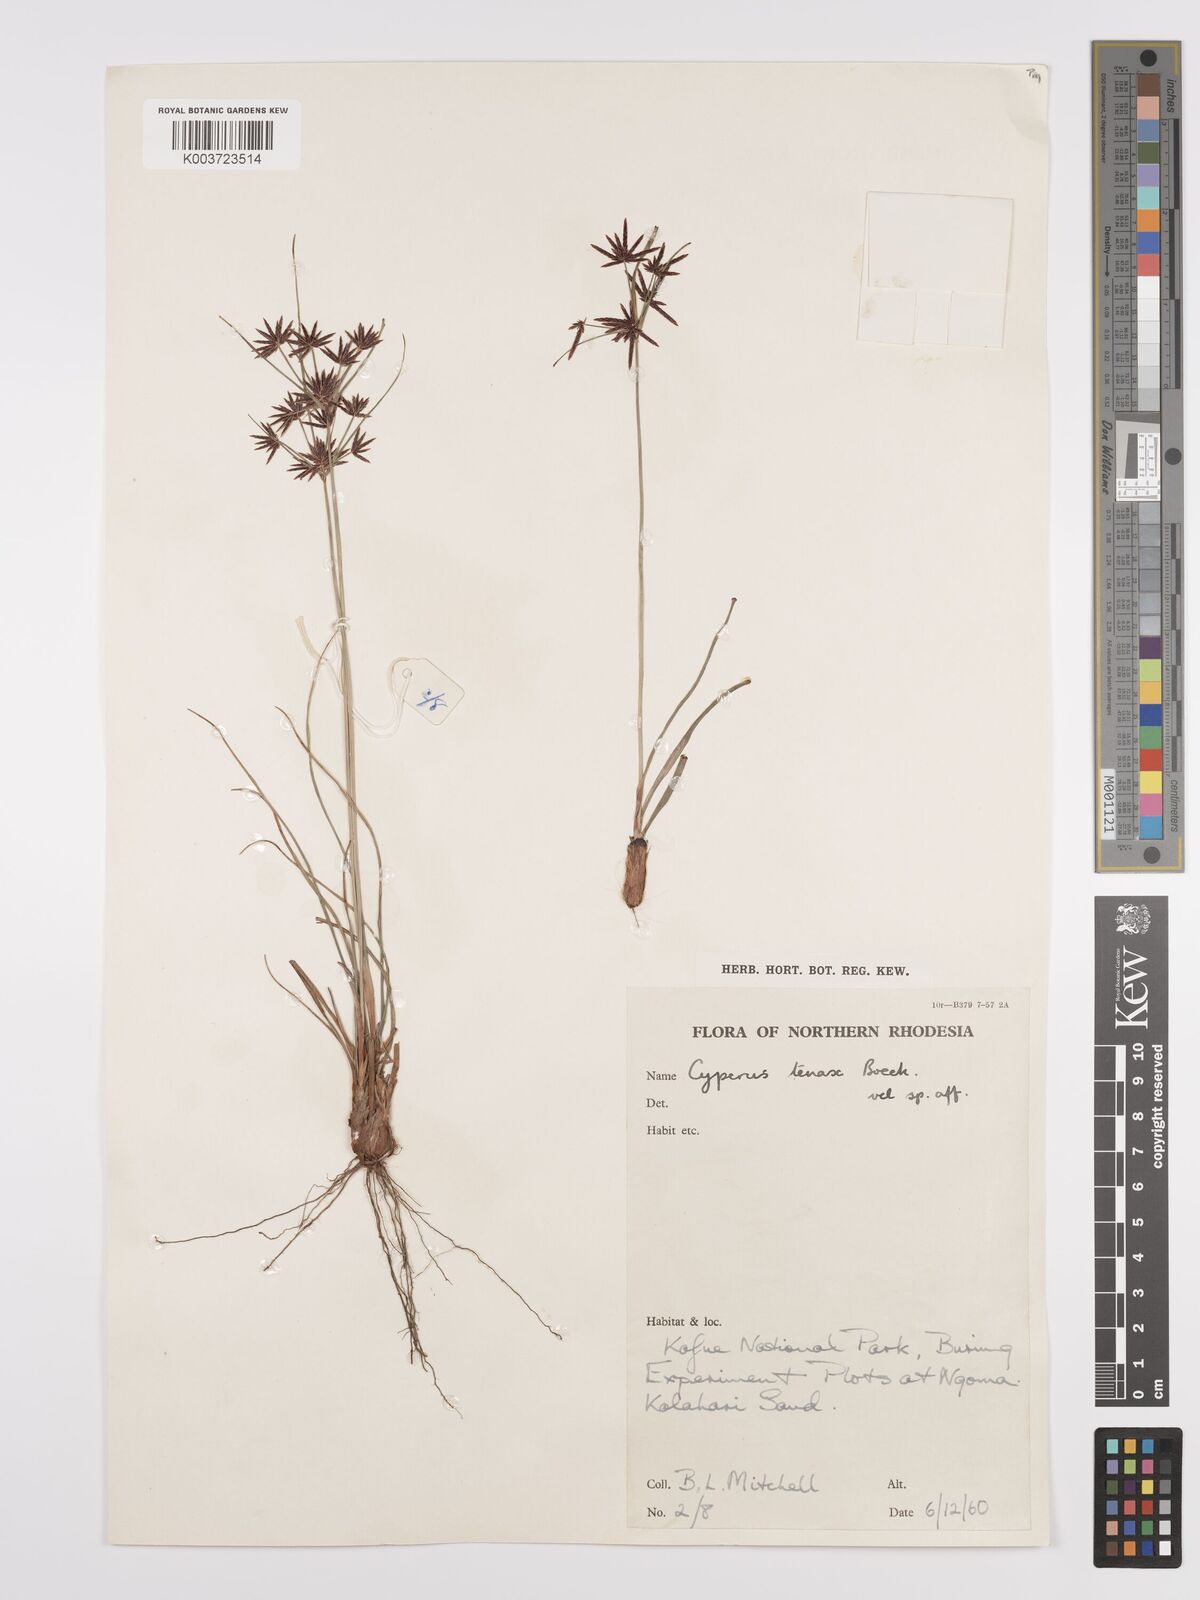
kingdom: Plantae
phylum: Tracheophyta
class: Liliopsida
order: Poales
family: Cyperaceae
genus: Cyperus
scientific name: Cyperus tenax
